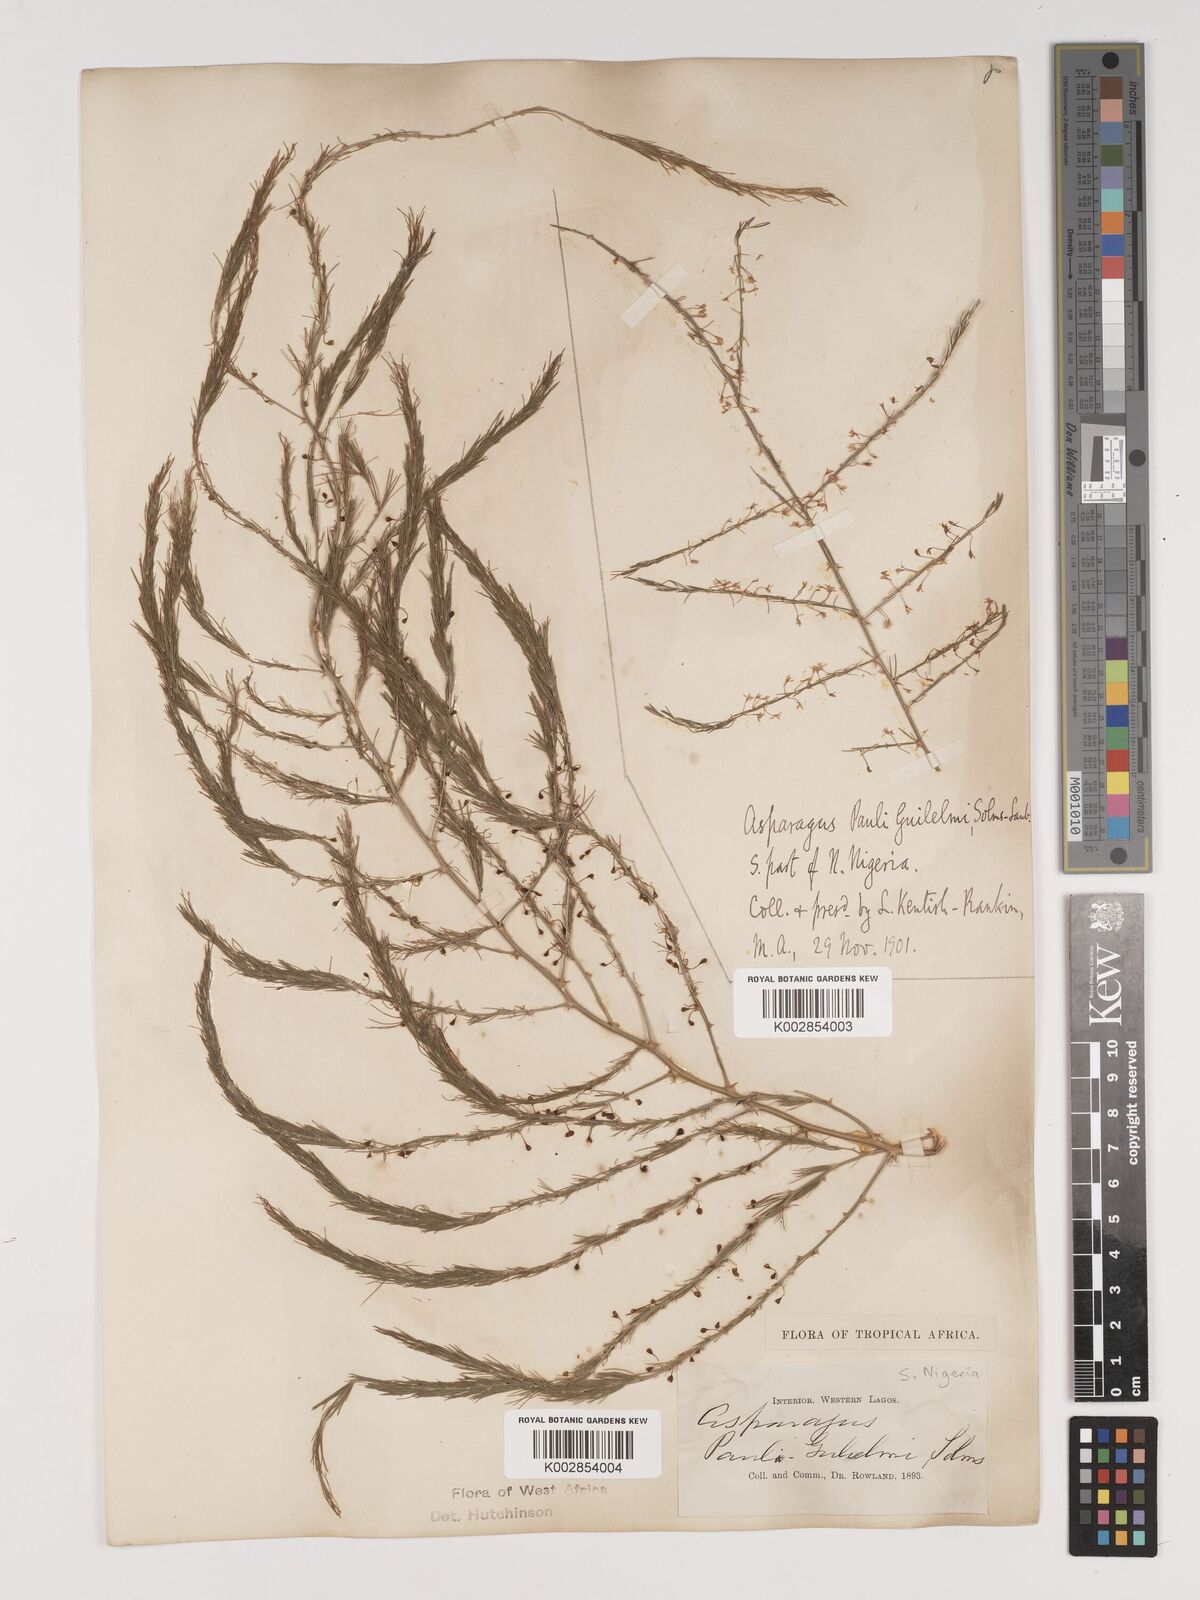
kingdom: Plantae
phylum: Tracheophyta
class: Liliopsida
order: Asparagales
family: Asparagaceae
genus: Asparagus
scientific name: Asparagus flagellaris
